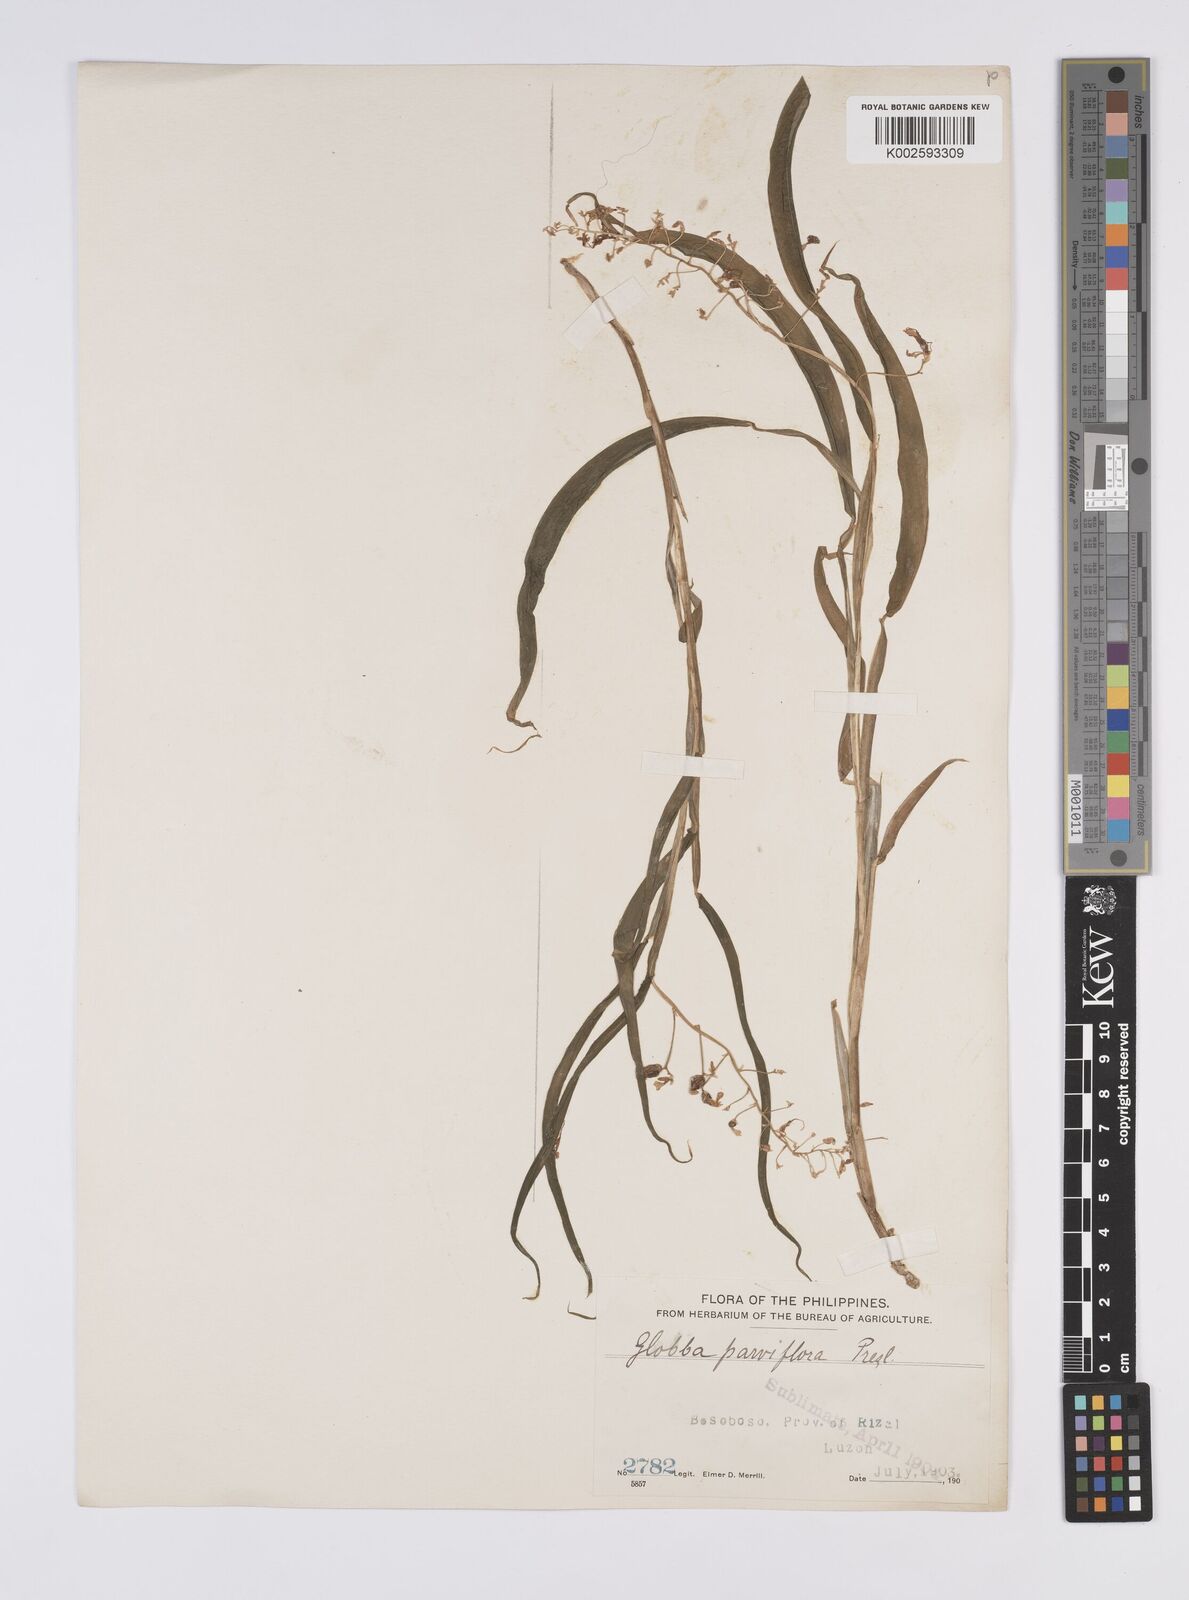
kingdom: Plantae
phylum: Tracheophyta
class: Liliopsida
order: Zingiberales
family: Zingiberaceae
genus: Globba
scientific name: Globba parviflora
